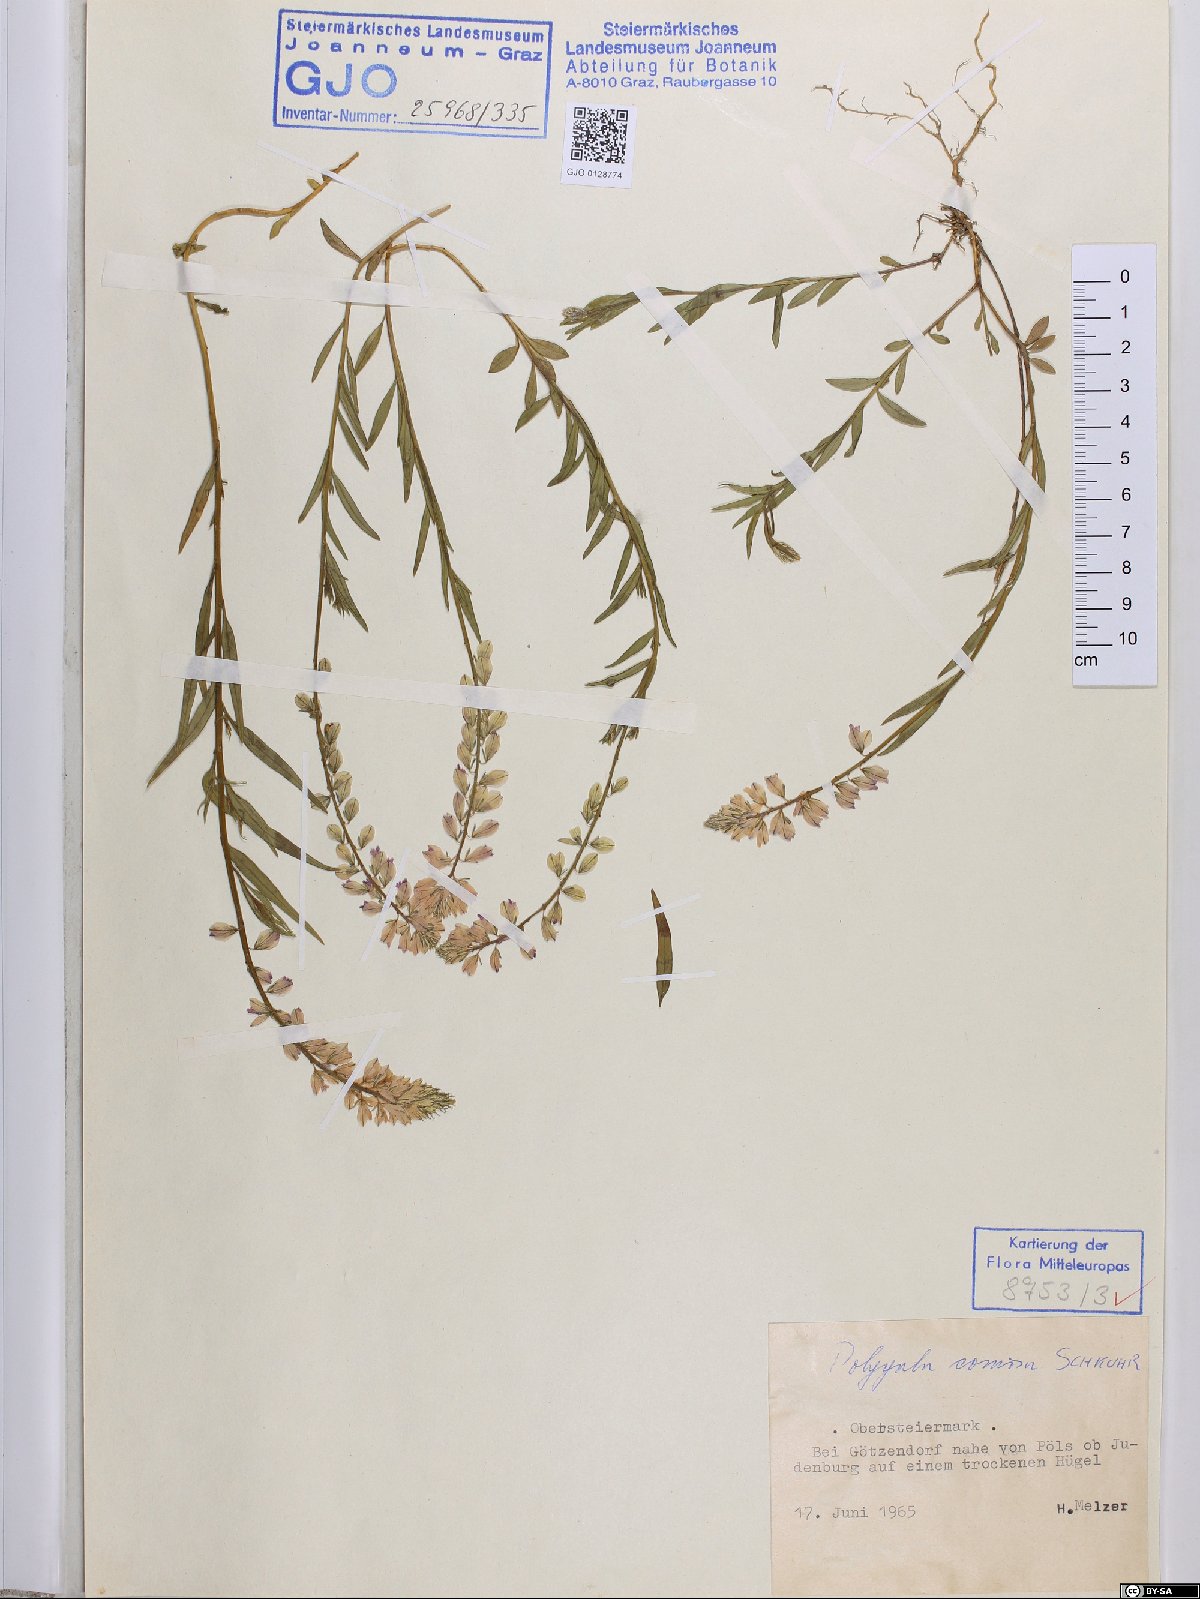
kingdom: Plantae
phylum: Tracheophyta
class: Magnoliopsida
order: Fabales
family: Polygalaceae
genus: Polygala
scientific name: Polygala comosa
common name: Tufted milkwort
